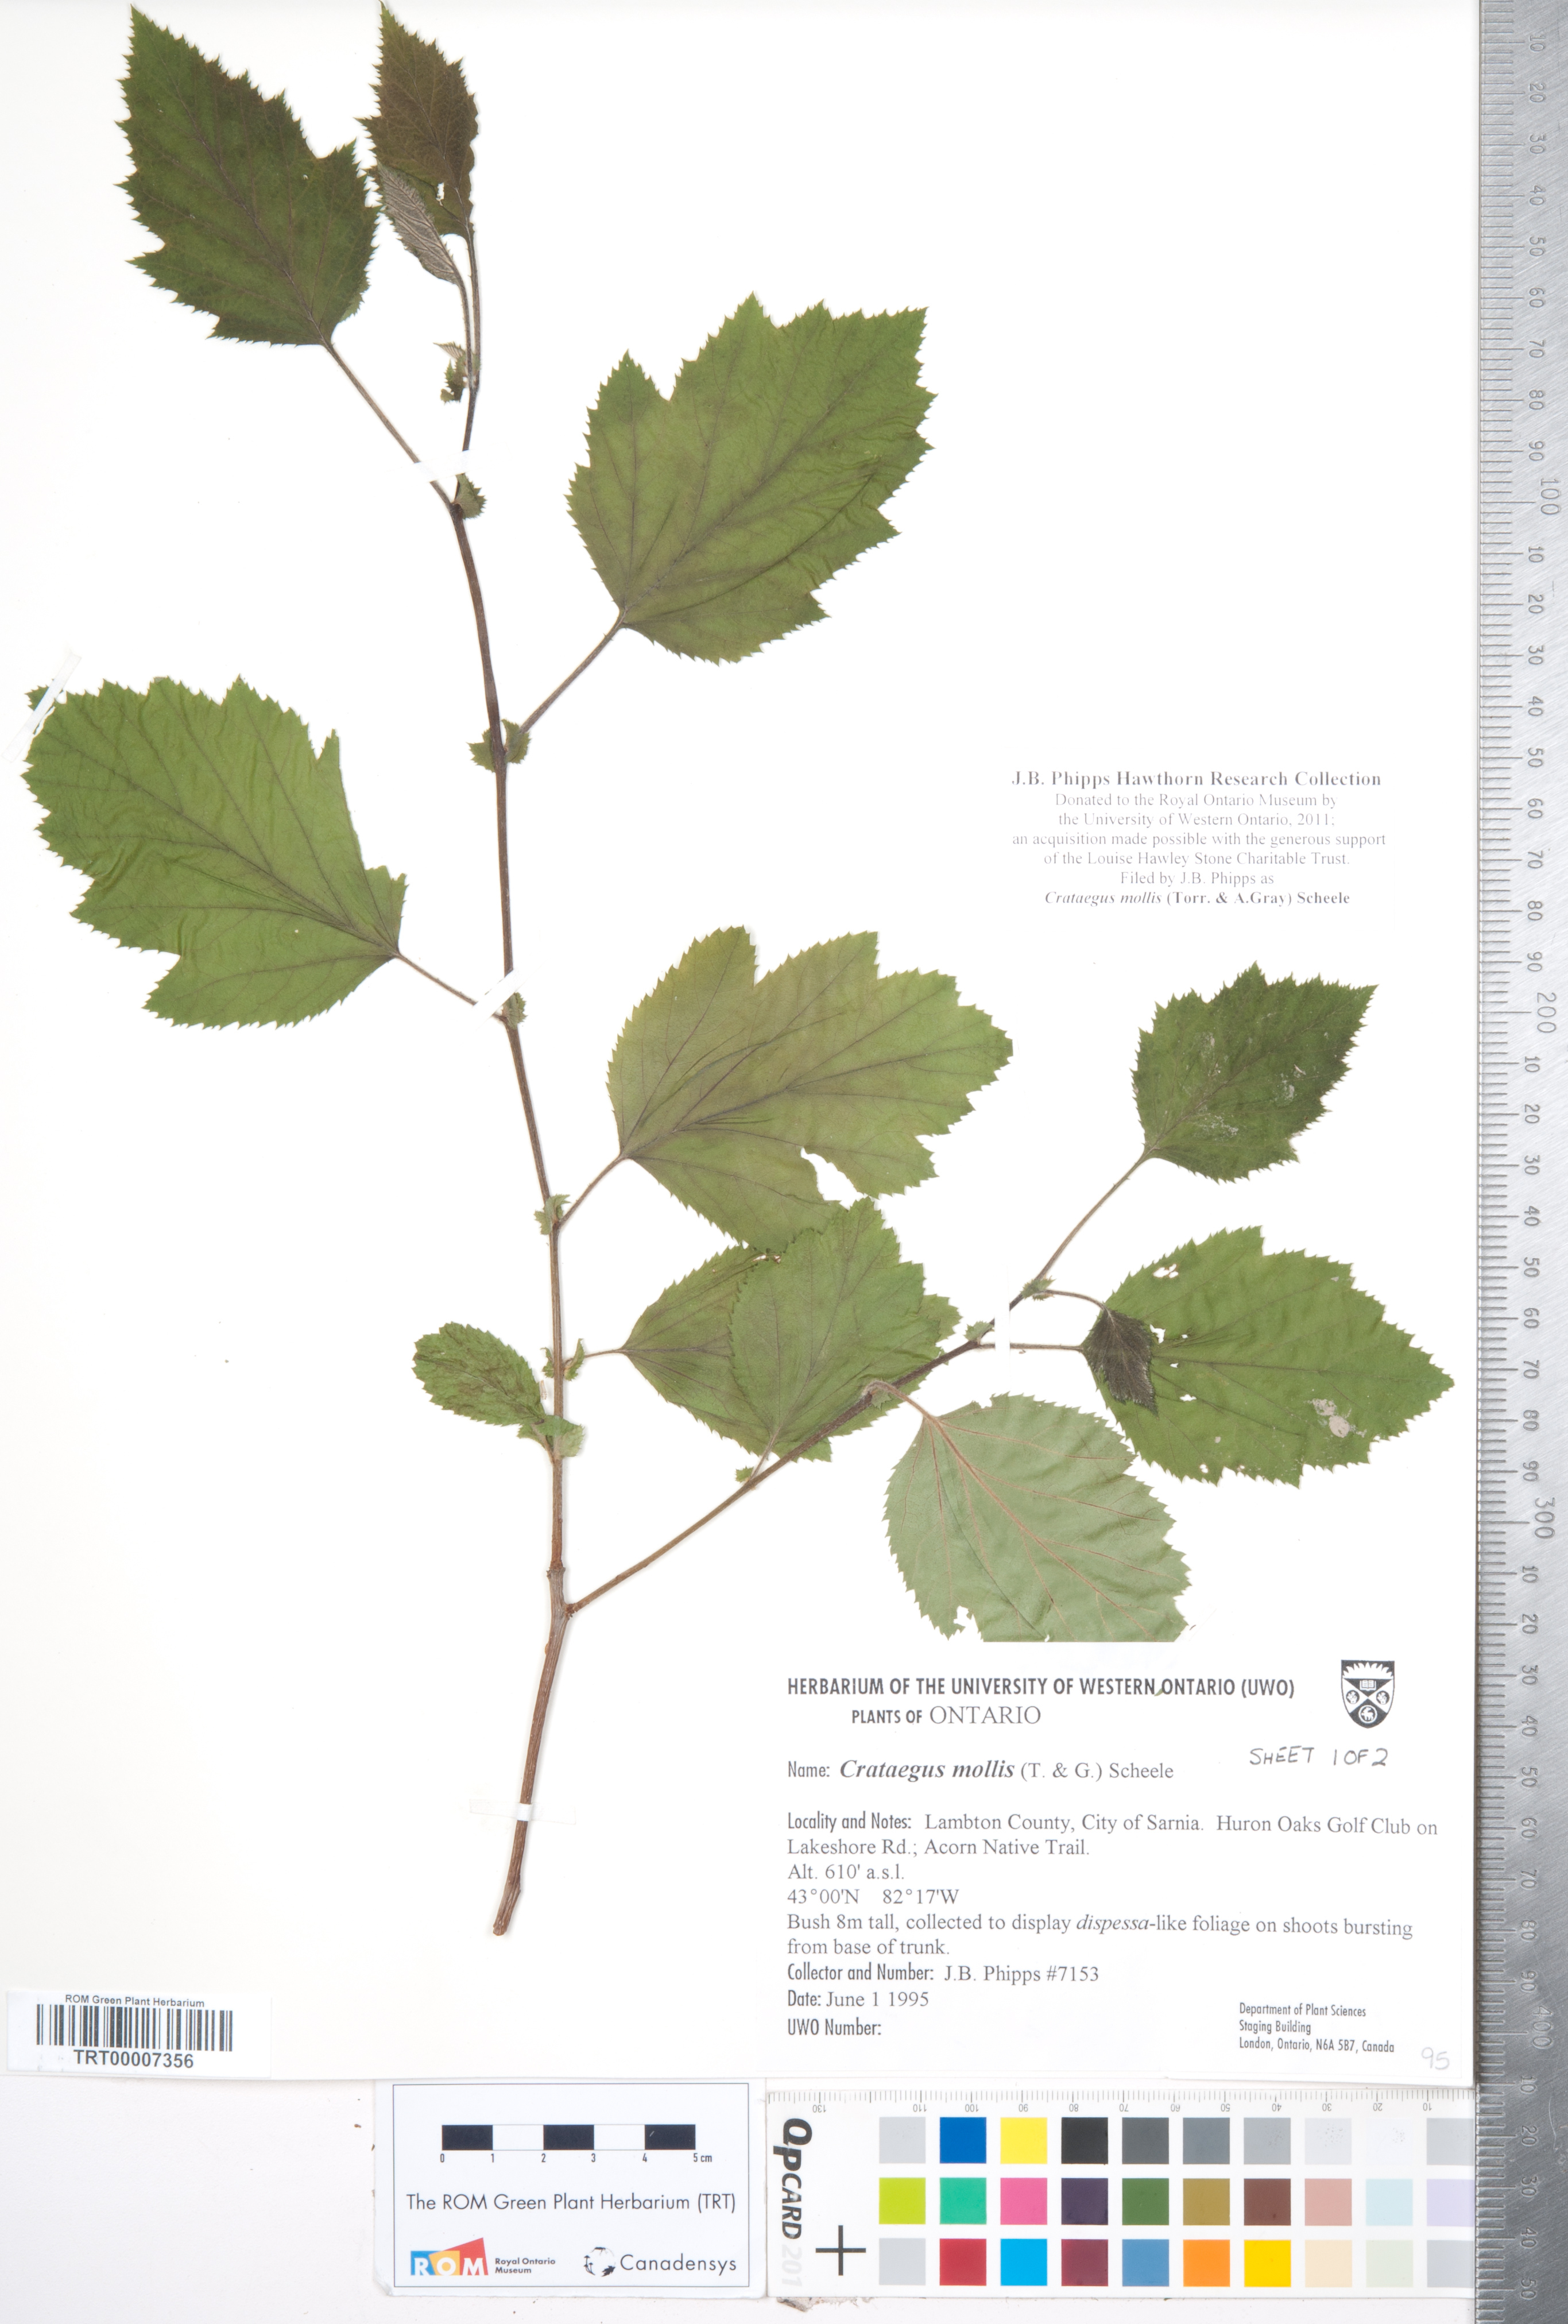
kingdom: Plantae
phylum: Tracheophyta
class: Magnoliopsida
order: Rosales
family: Rosaceae
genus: Crataegus
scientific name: Crataegus mollis
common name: Downy hawthorn
